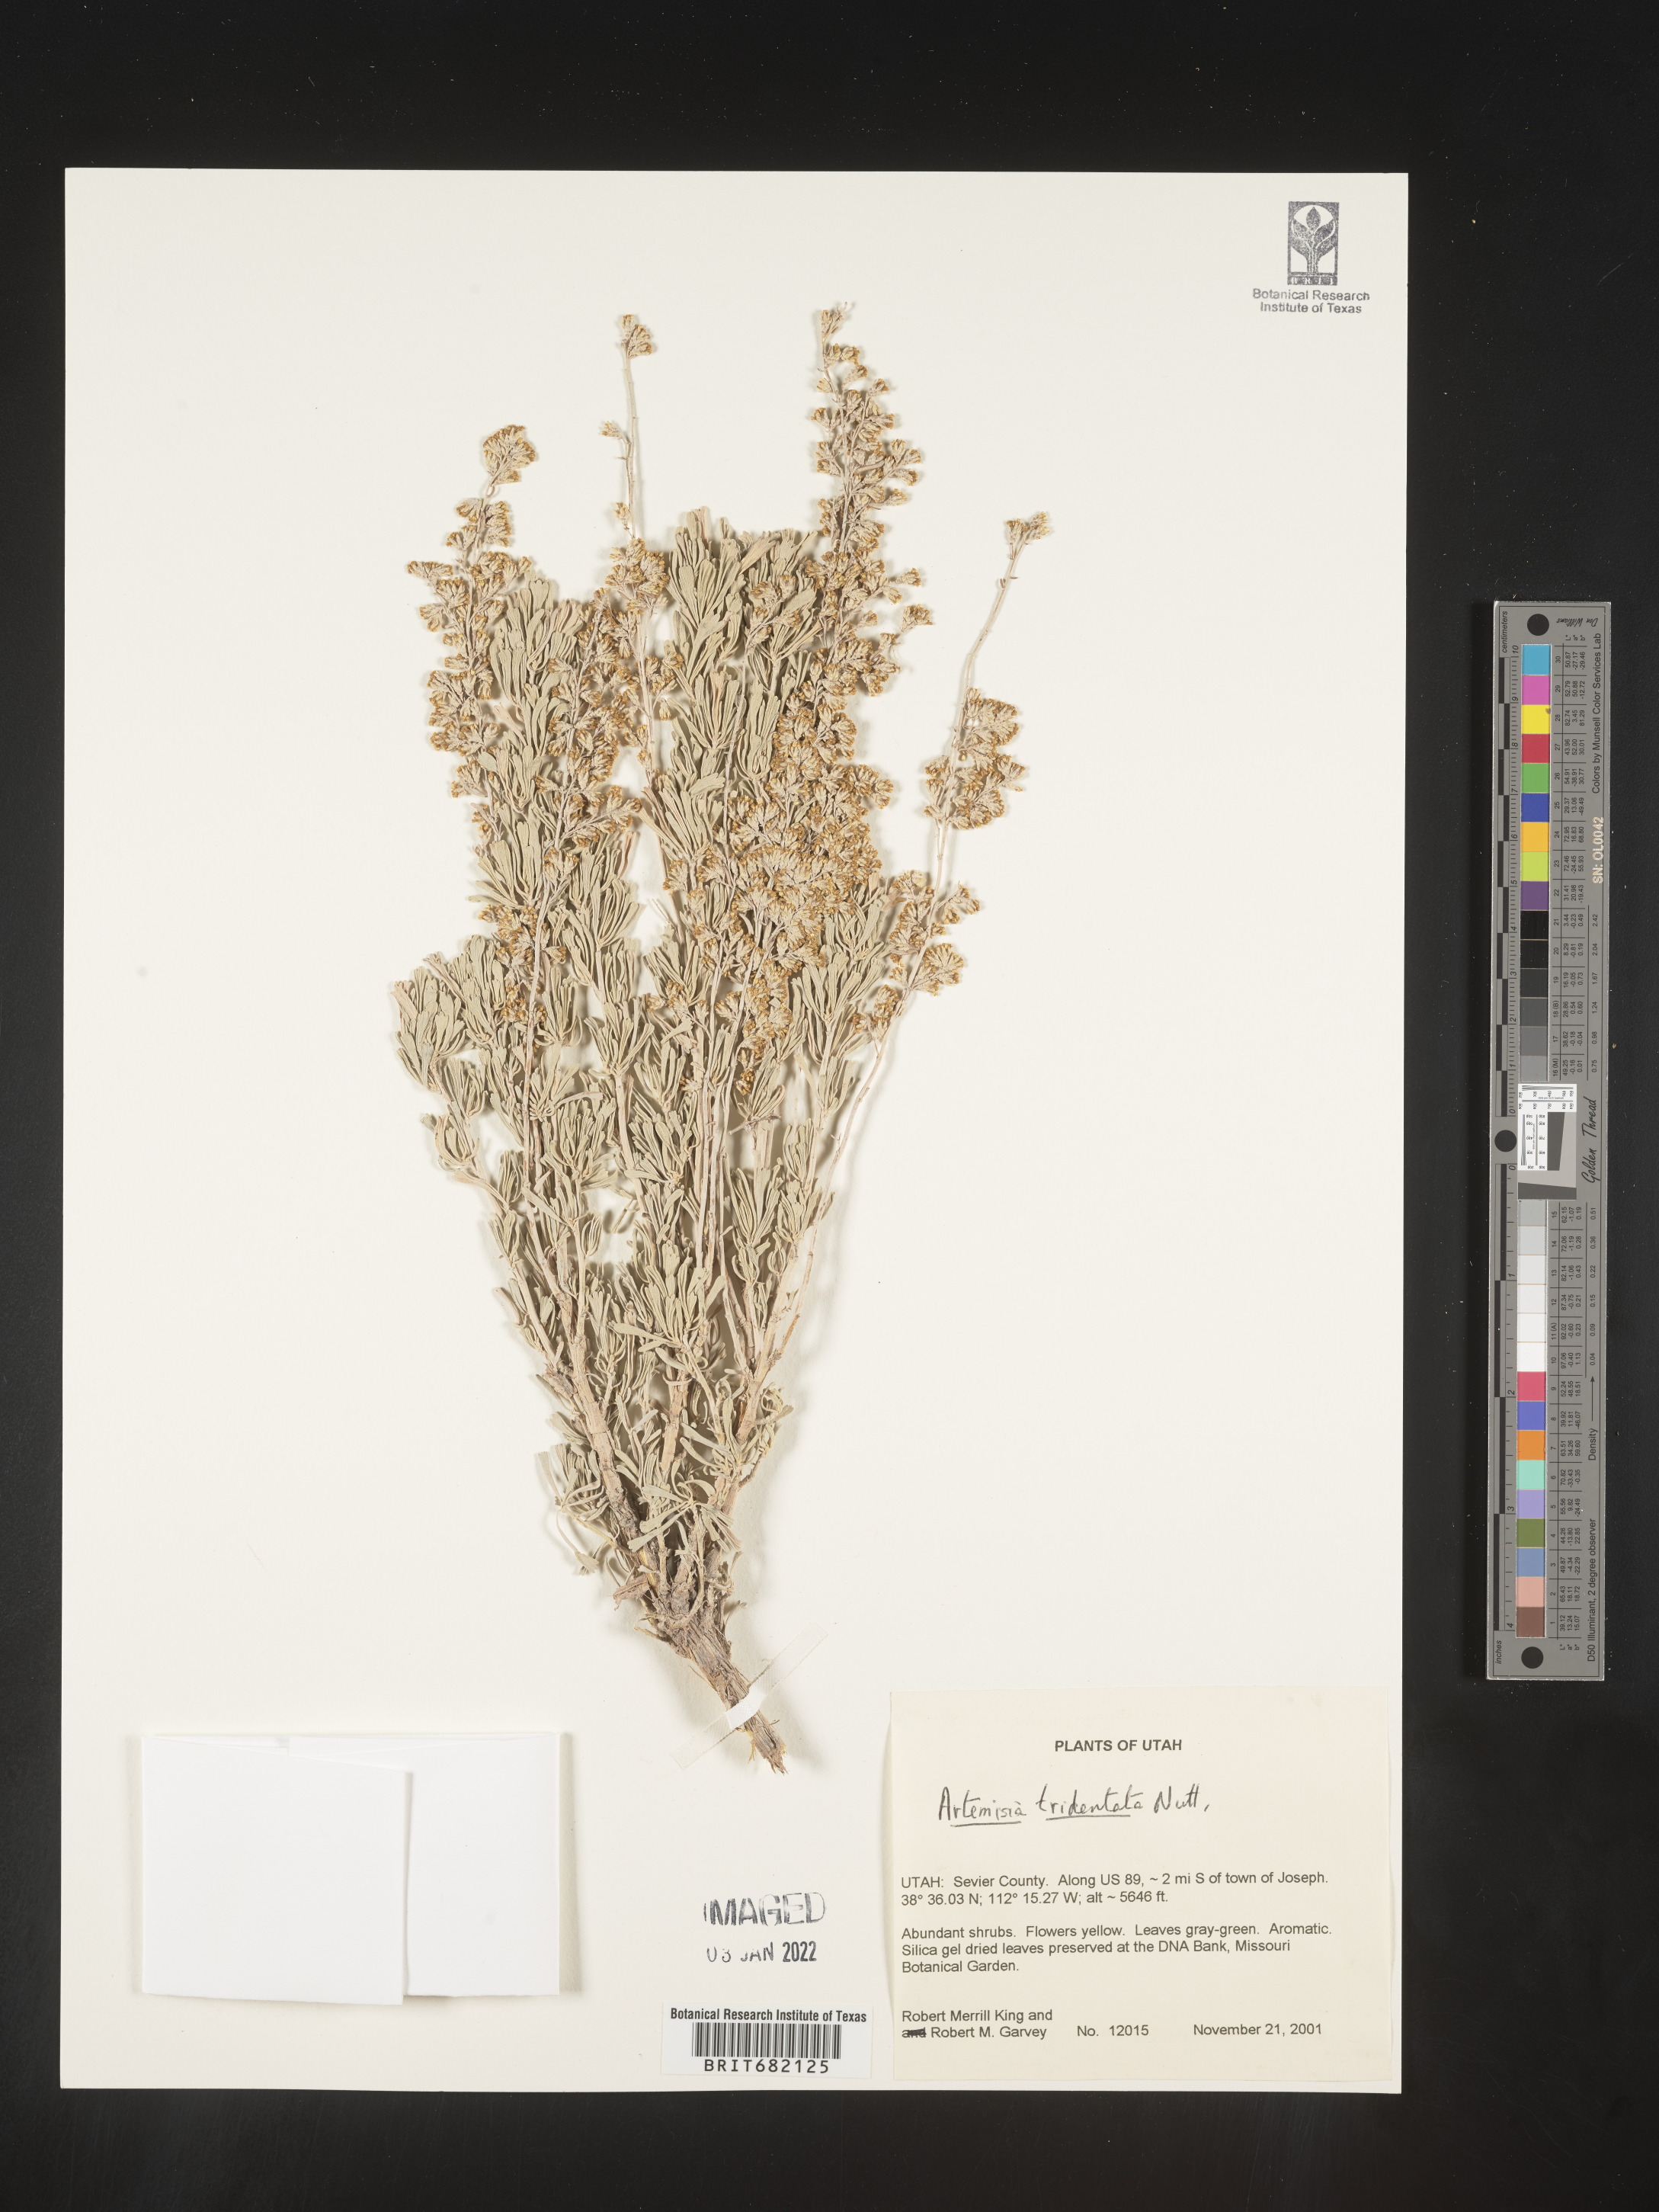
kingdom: Plantae
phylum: Tracheophyta
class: Magnoliopsida
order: Asterales
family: Asteraceae
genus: Artemisia
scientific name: Artemisia tridentata
